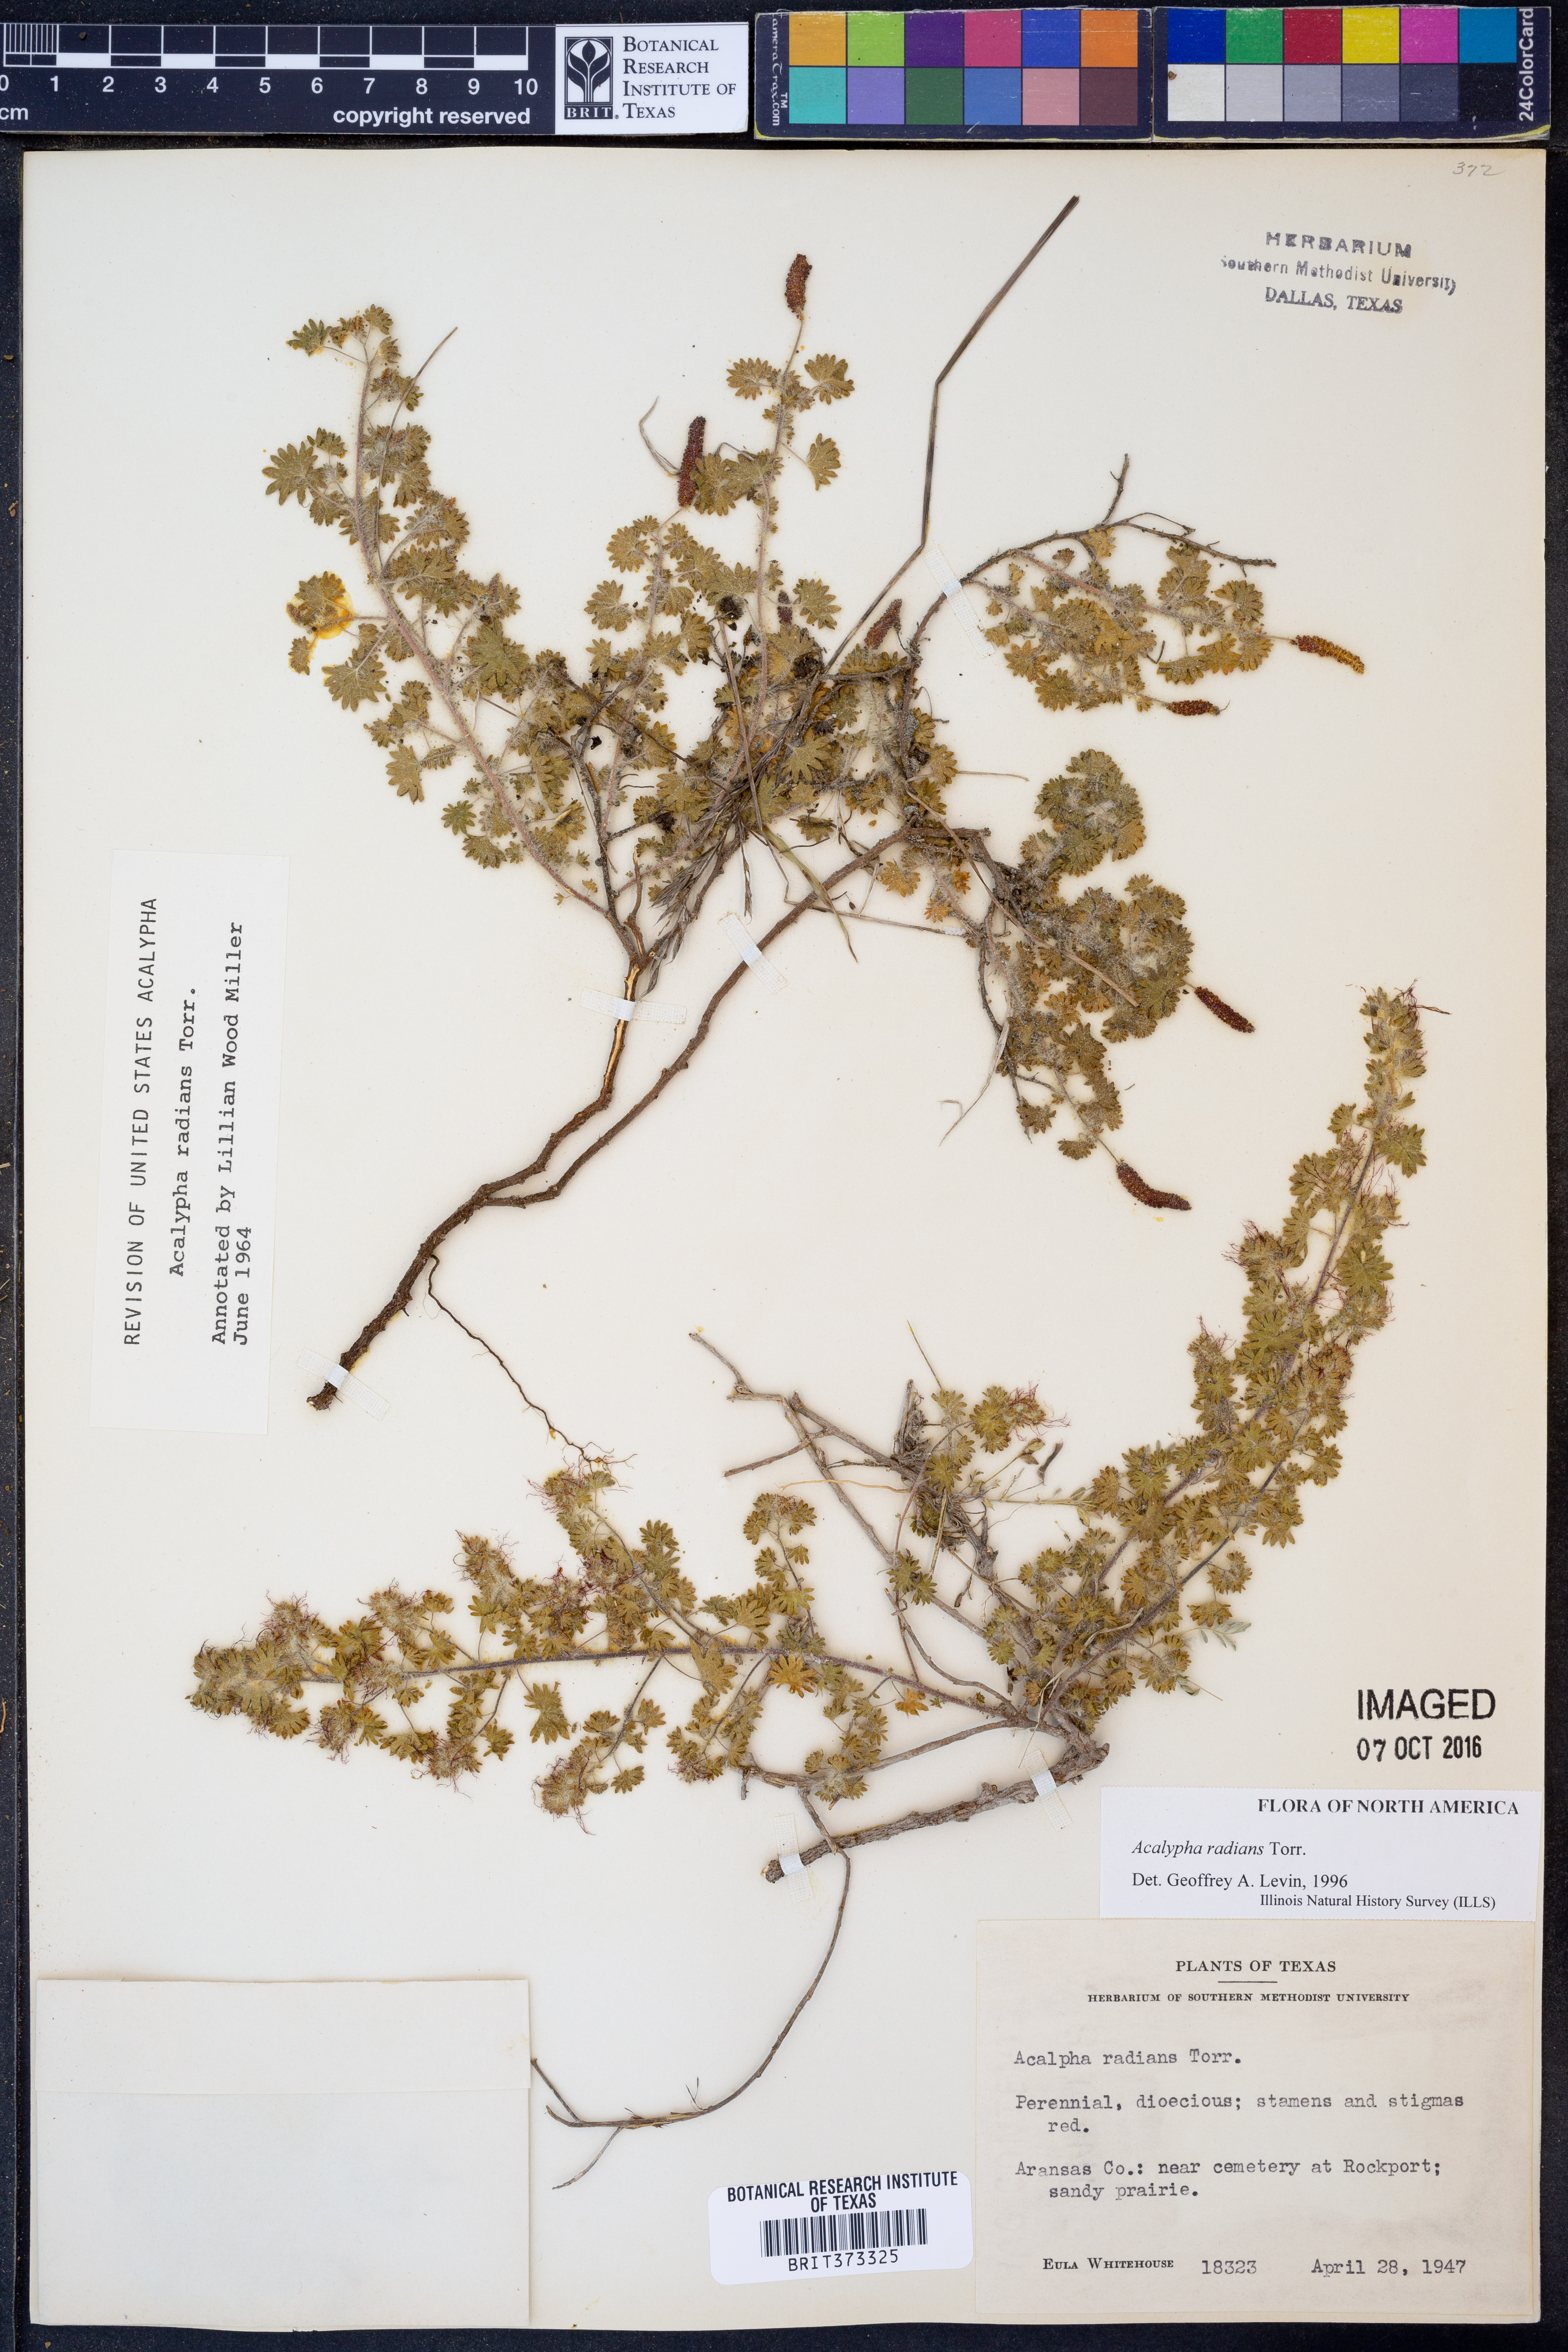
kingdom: Plantae
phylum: Tracheophyta
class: Magnoliopsida
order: Malpighiales
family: Euphorbiaceae
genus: Acalypha
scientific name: Acalypha radians
